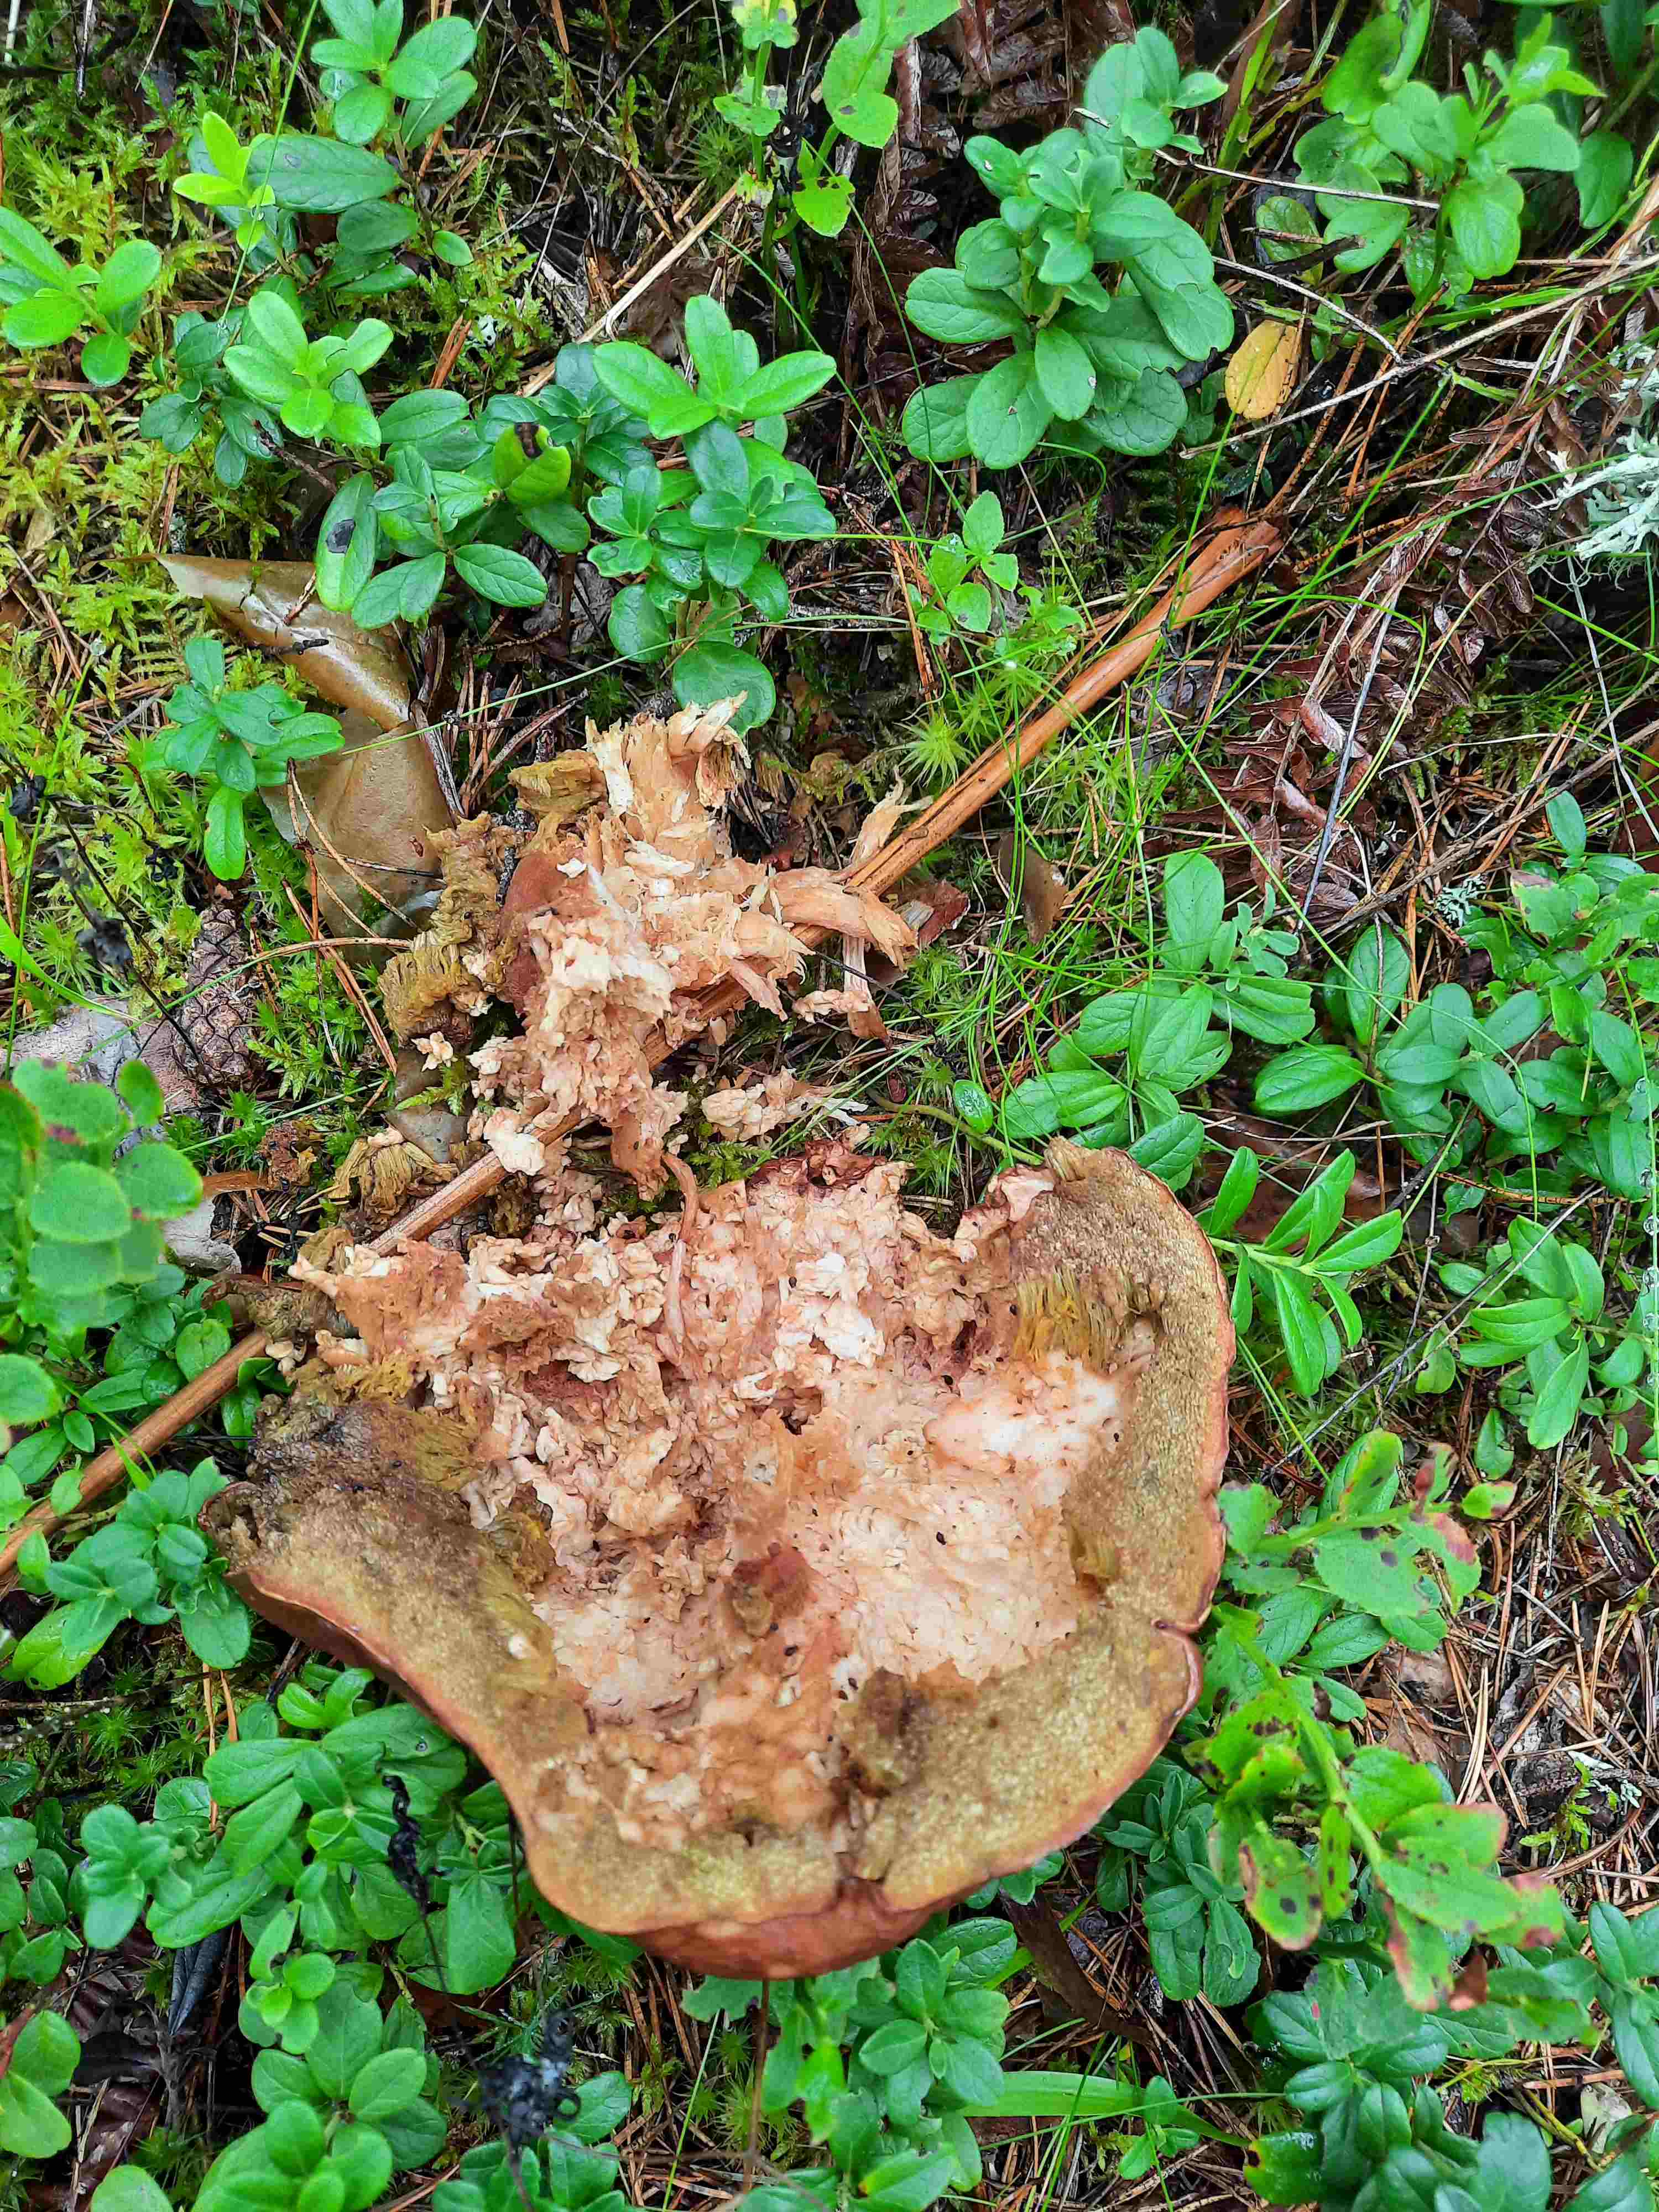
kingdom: Fungi
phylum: Basidiomycota
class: Agaricomycetes
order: Boletales
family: Boletaceae
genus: Boletus
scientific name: Boletus
